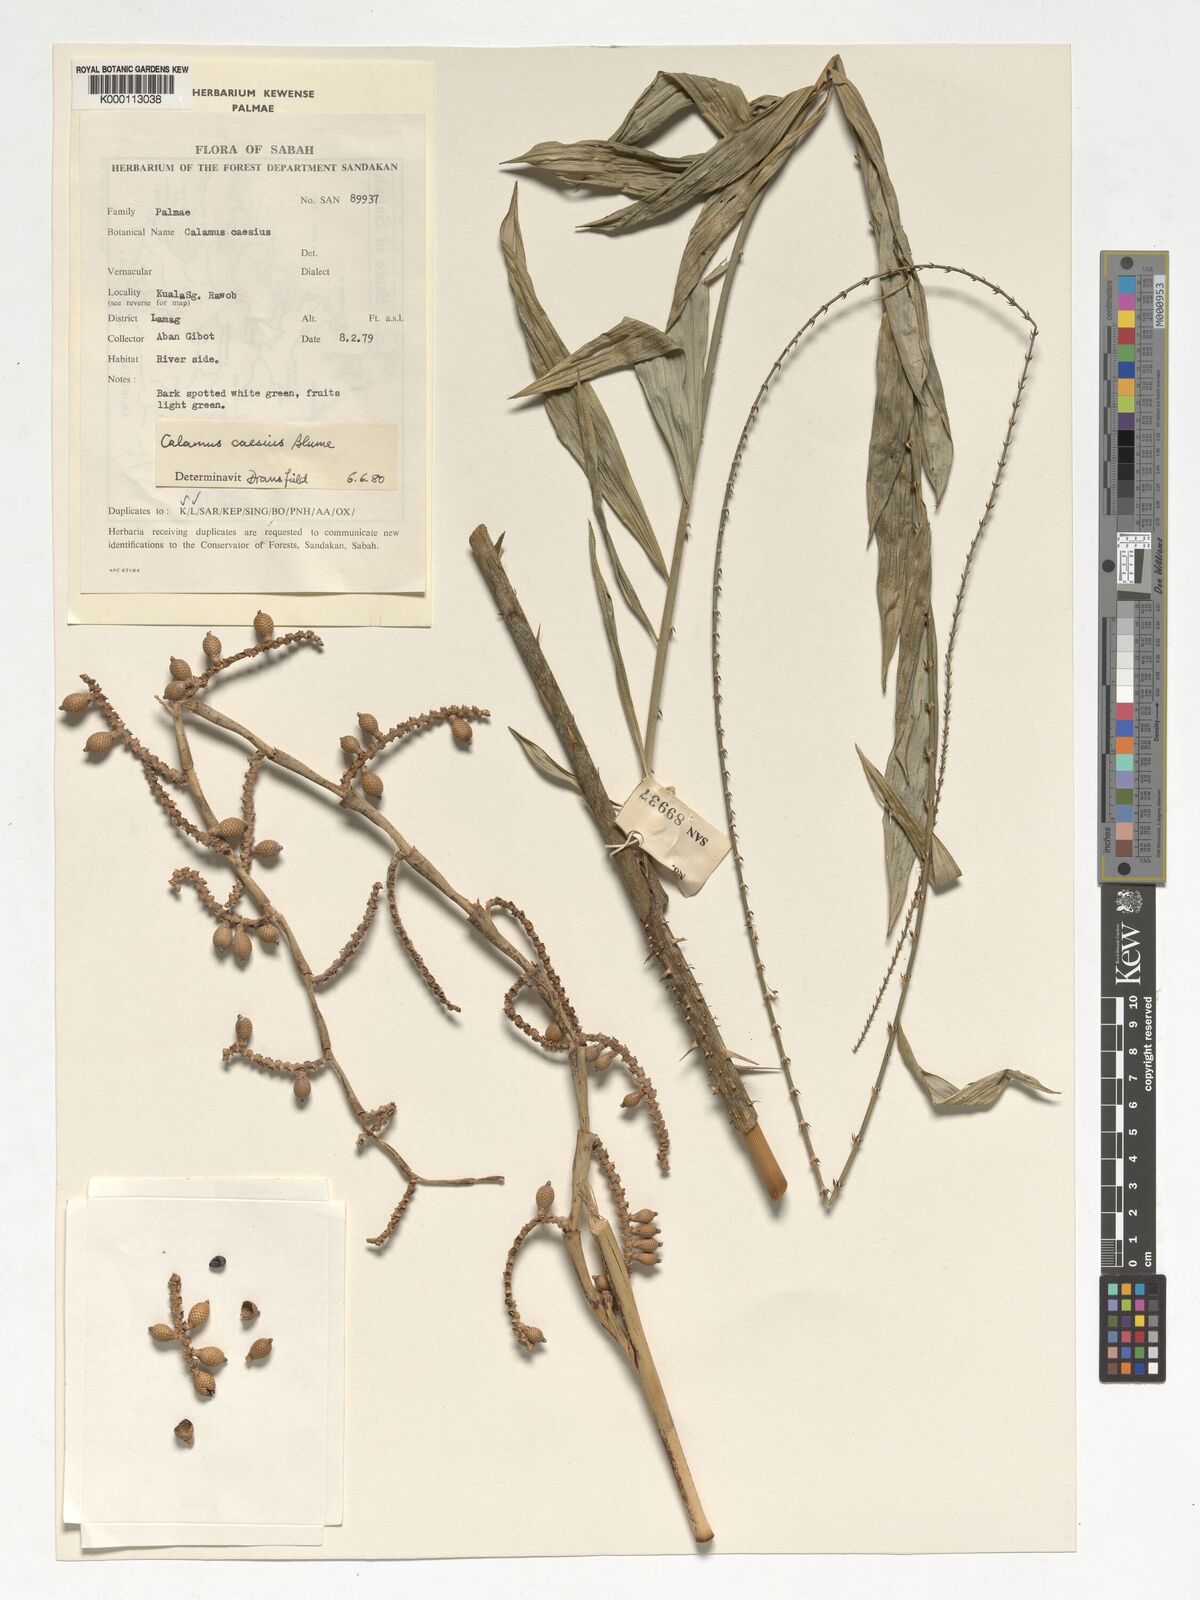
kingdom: Plantae
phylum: Tracheophyta
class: Liliopsida
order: Arecales
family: Arecaceae
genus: Calamus
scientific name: Calamus caesius
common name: Rattan palm
